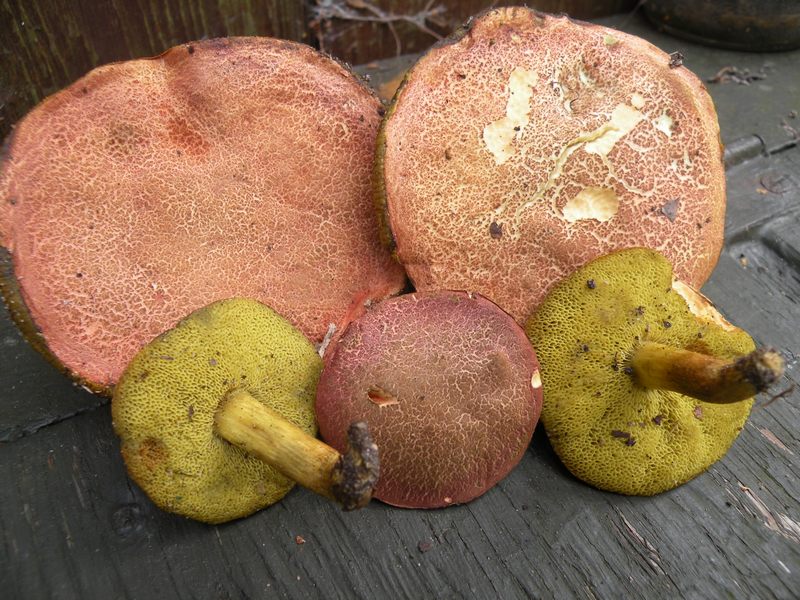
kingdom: Fungi
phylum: Basidiomycota
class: Agaricomycetes
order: Boletales
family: Boletaceae
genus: Hortiboletus
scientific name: Hortiboletus engelii
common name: fersken-rørhat
